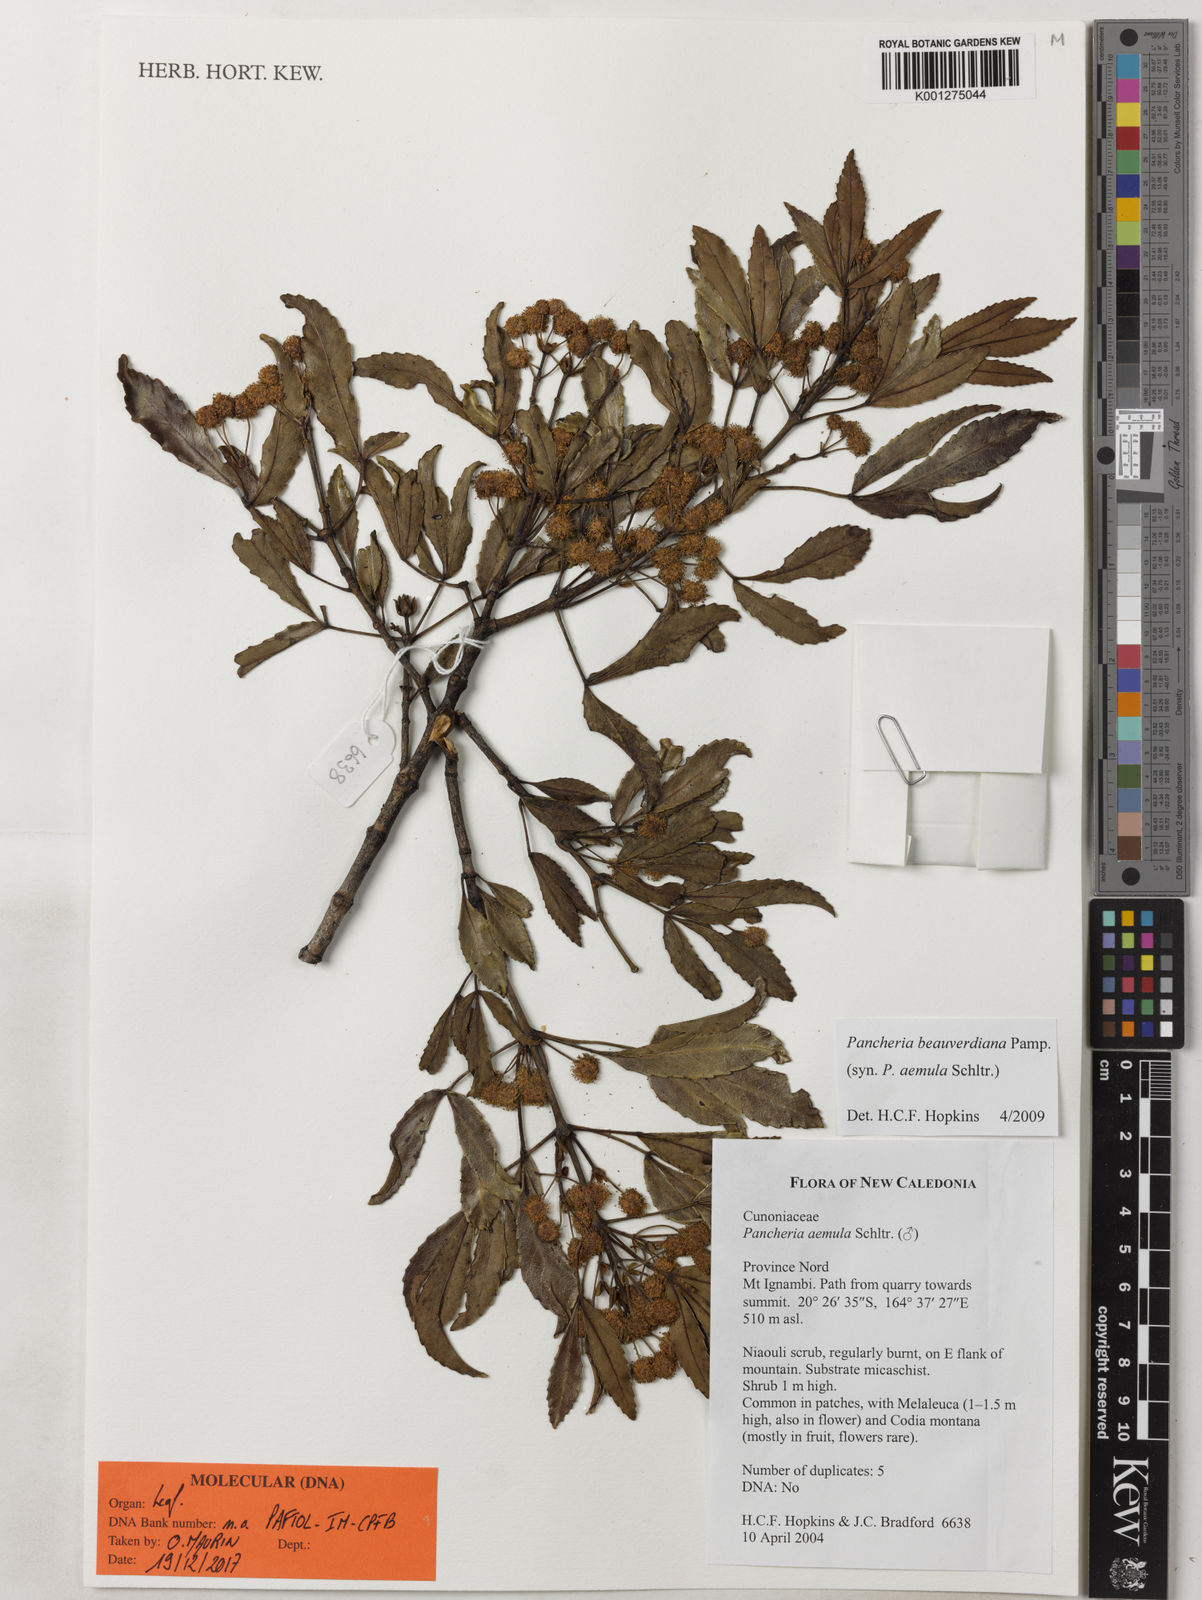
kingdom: Plantae
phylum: Tracheophyta
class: Magnoliopsida
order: Oxalidales
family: Cunoniaceae
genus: Pancheria
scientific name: Pancheria beauverdiana
